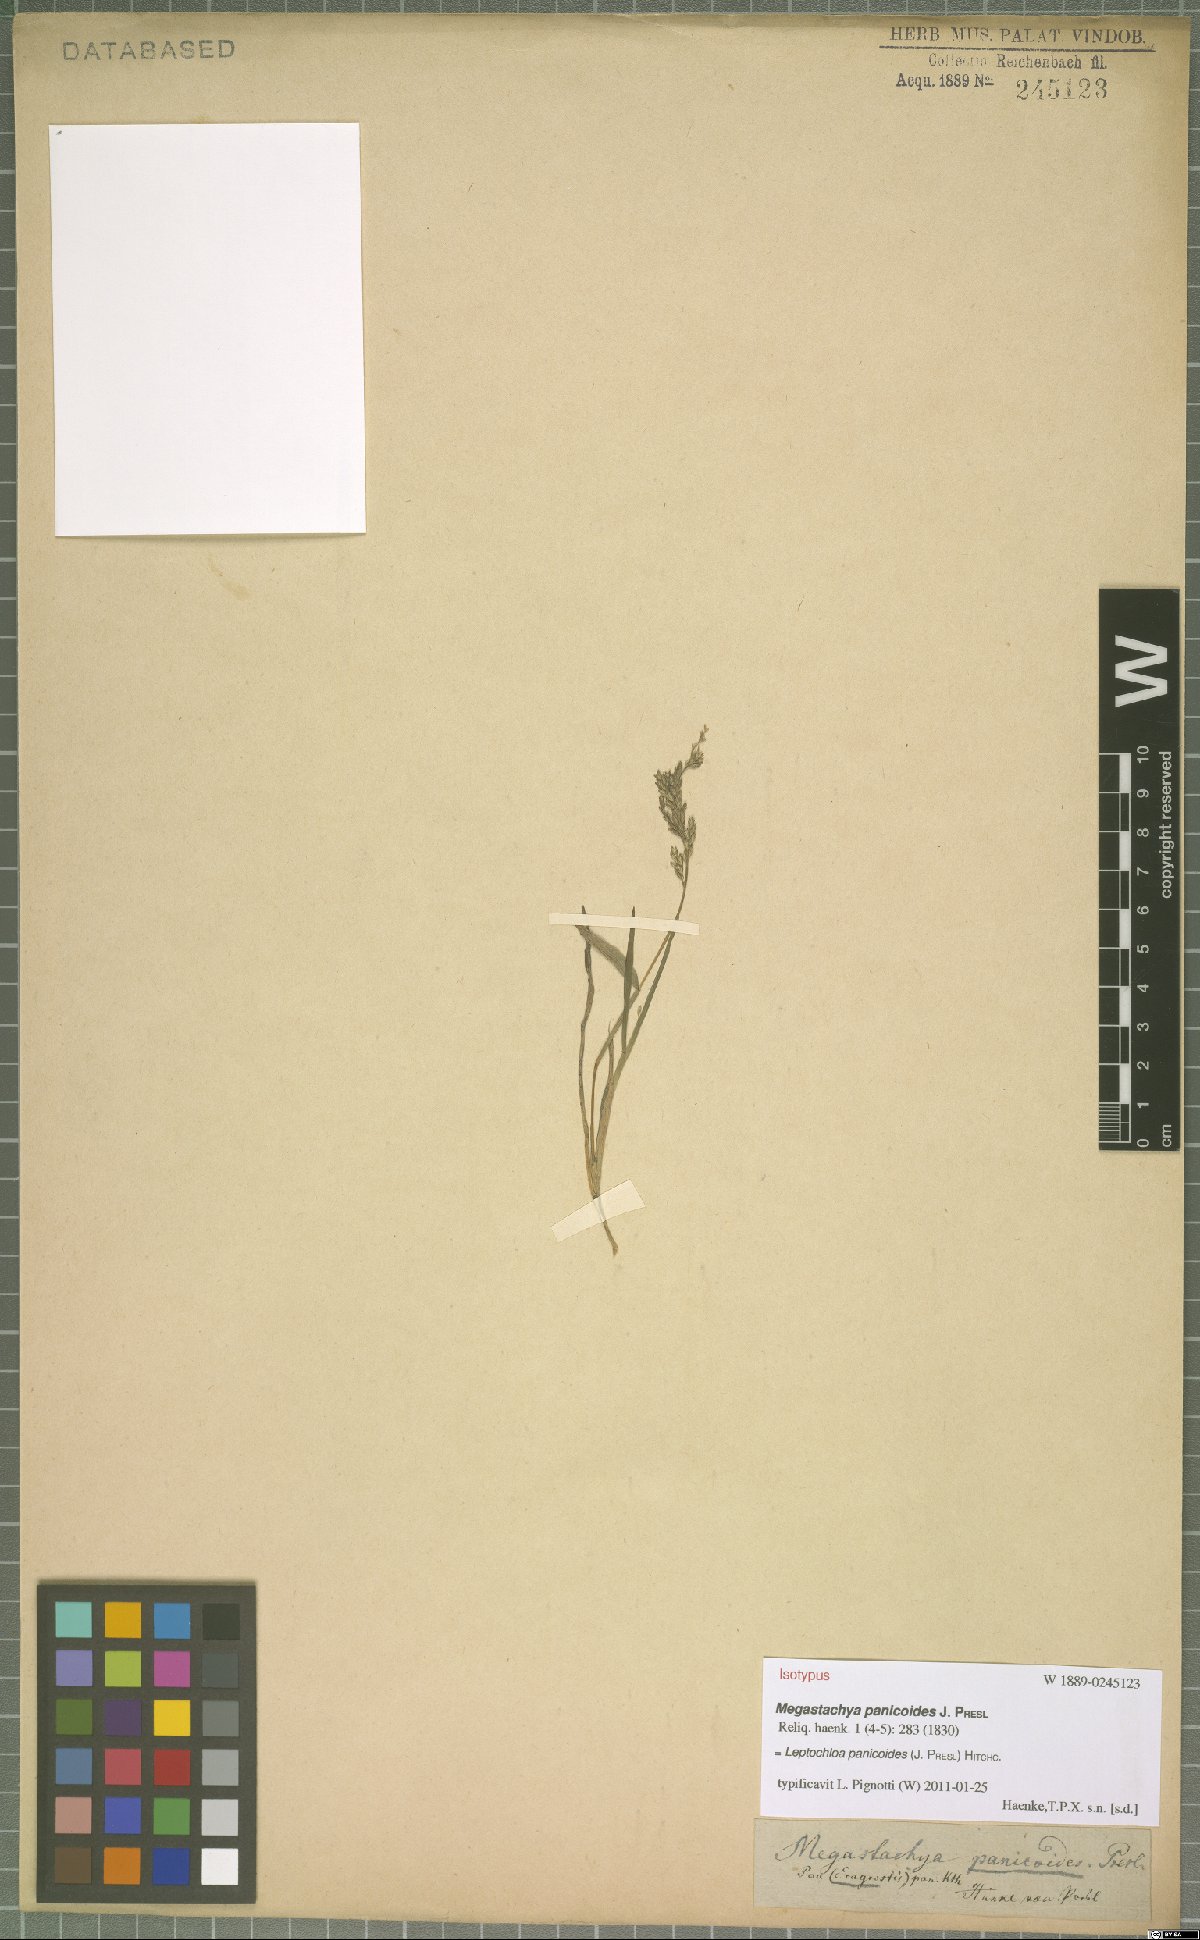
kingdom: Plantae
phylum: Tracheophyta
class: Liliopsida
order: Poales
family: Poaceae
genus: Leptochloa
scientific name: Leptochloa panicoides
